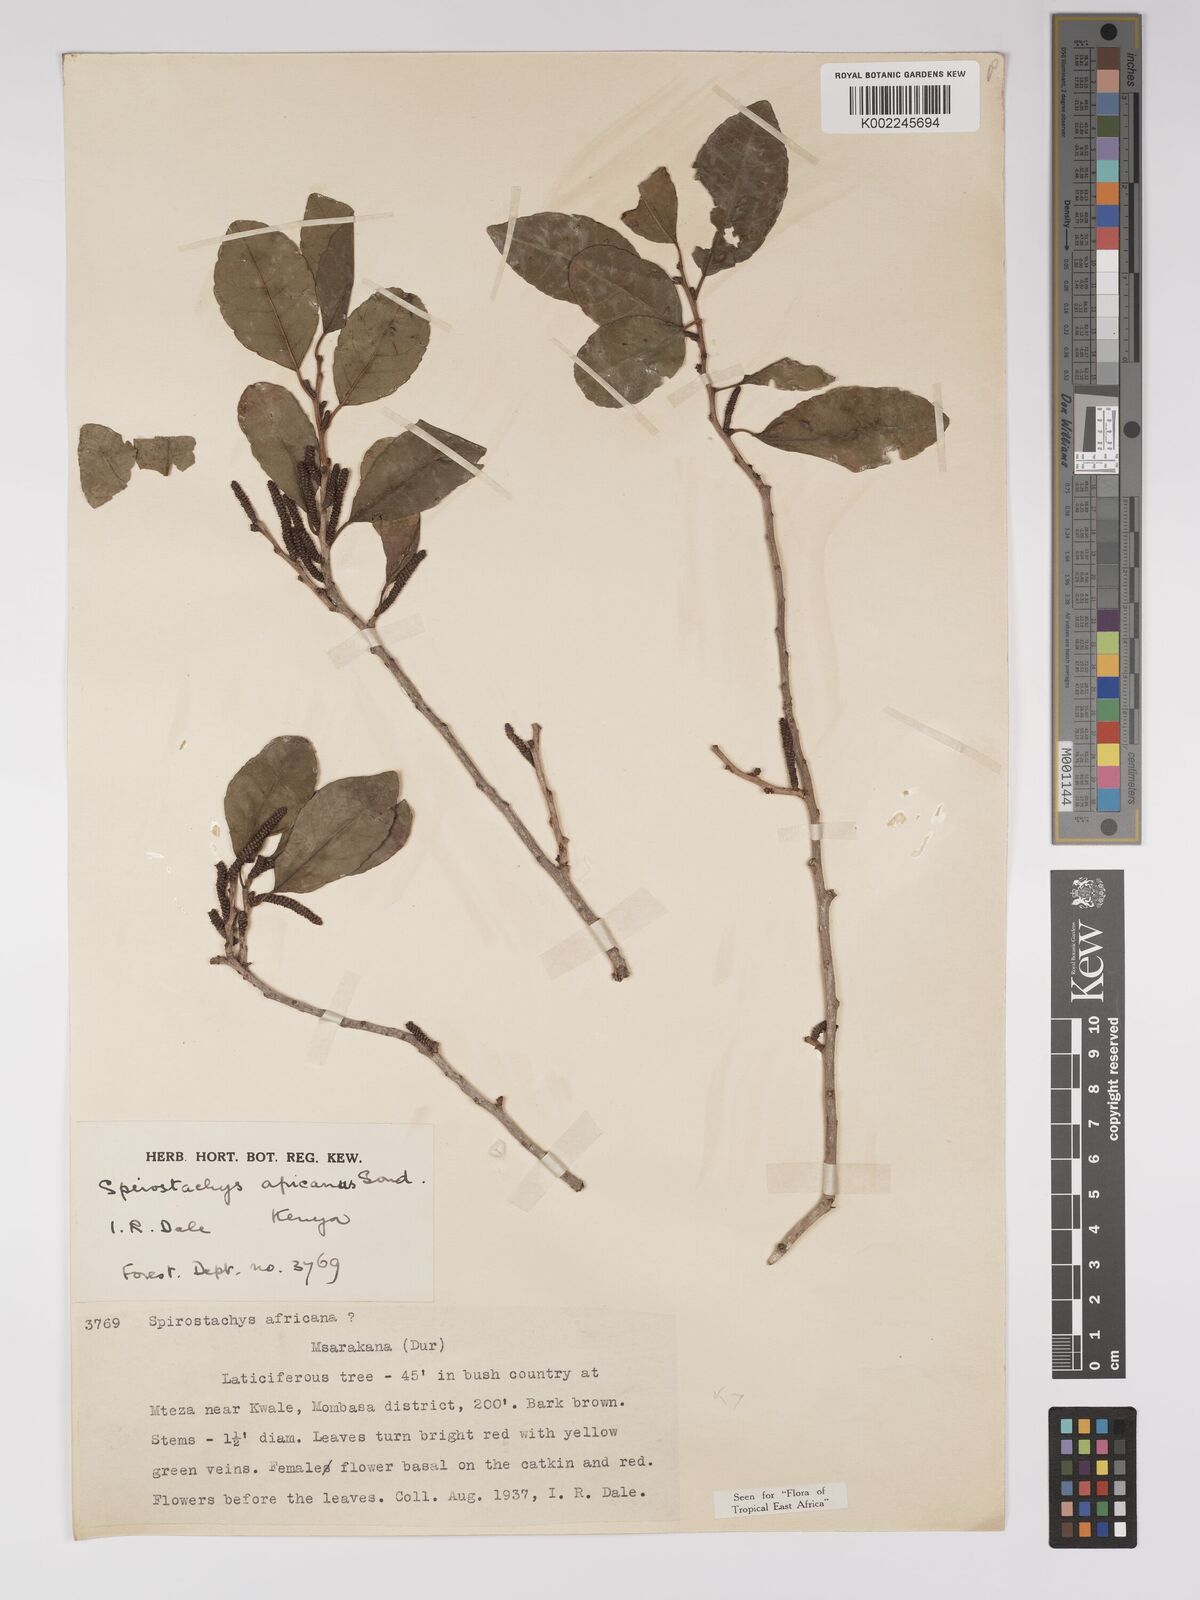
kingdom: Plantae
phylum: Tracheophyta
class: Magnoliopsida
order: Malpighiales
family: Euphorbiaceae
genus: Spirostachys
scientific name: Spirostachys africana
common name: Tamboti
